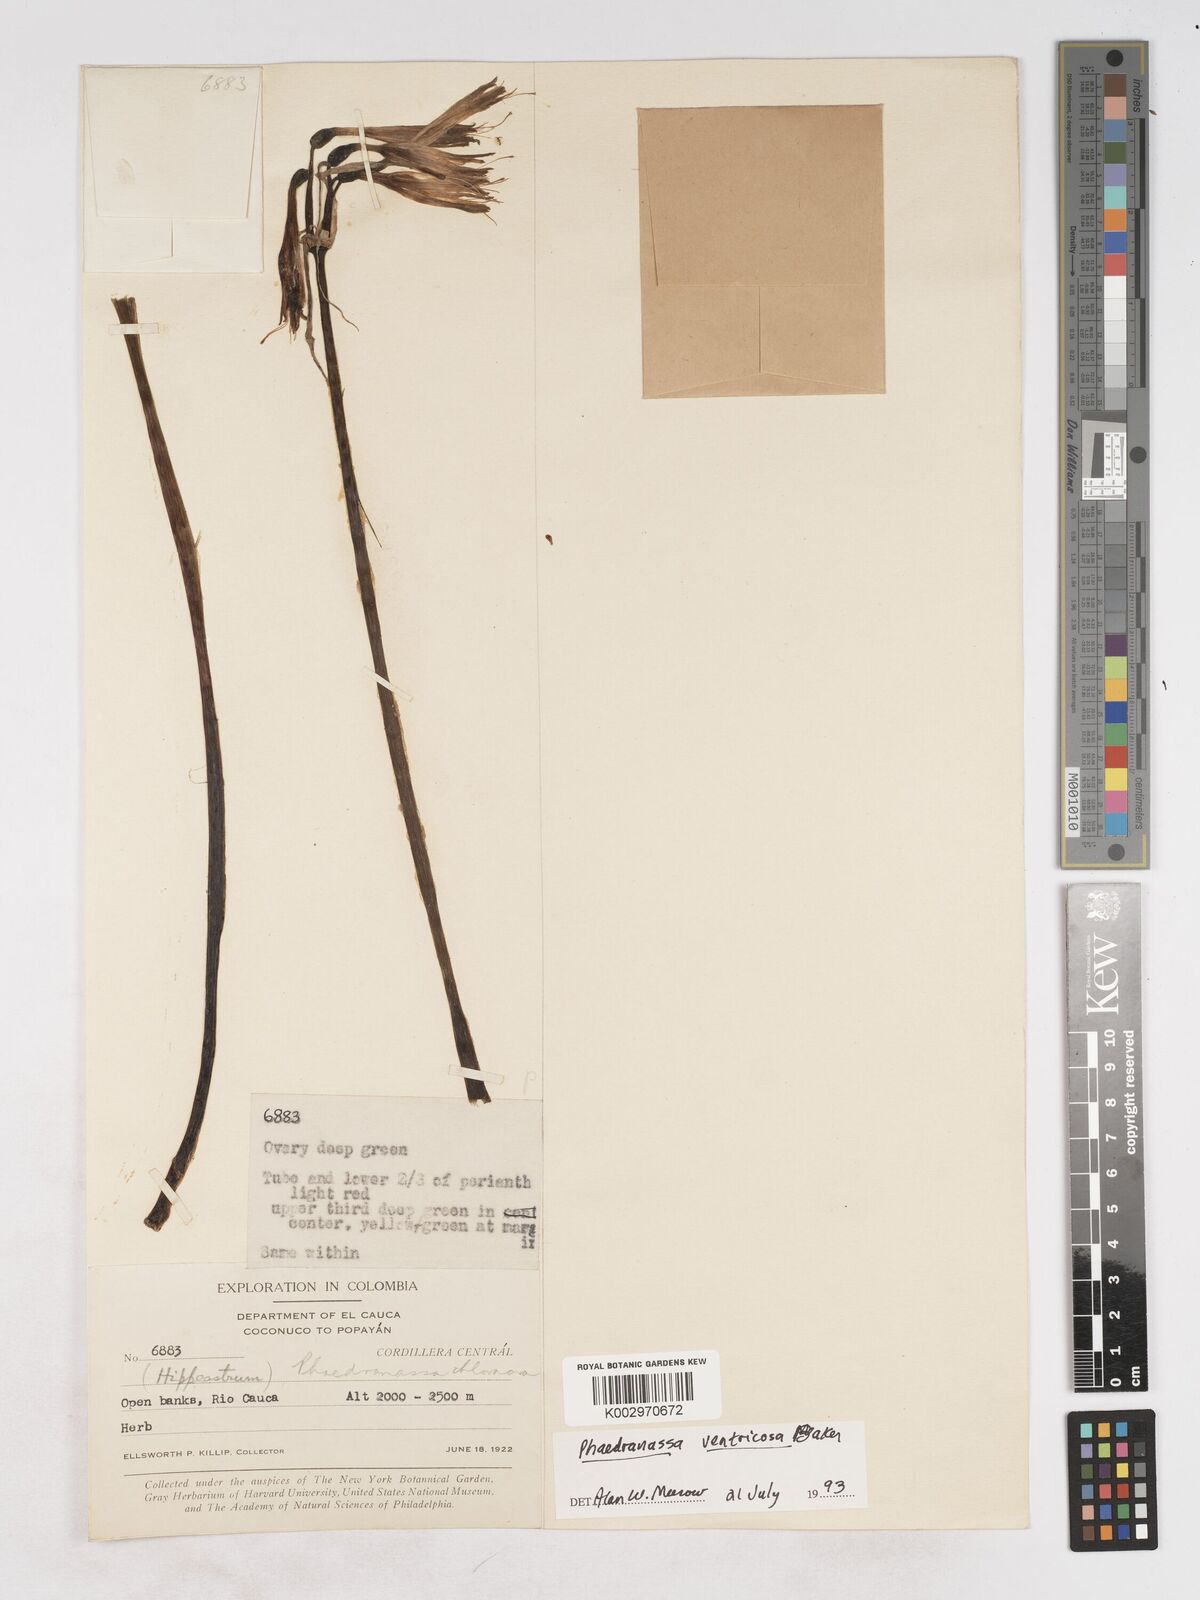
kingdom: Plantae
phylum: Tracheophyta
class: Liliopsida
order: Asparagales
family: Amaryllidaceae
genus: Phaedranassa
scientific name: Phaedranassa dubia
